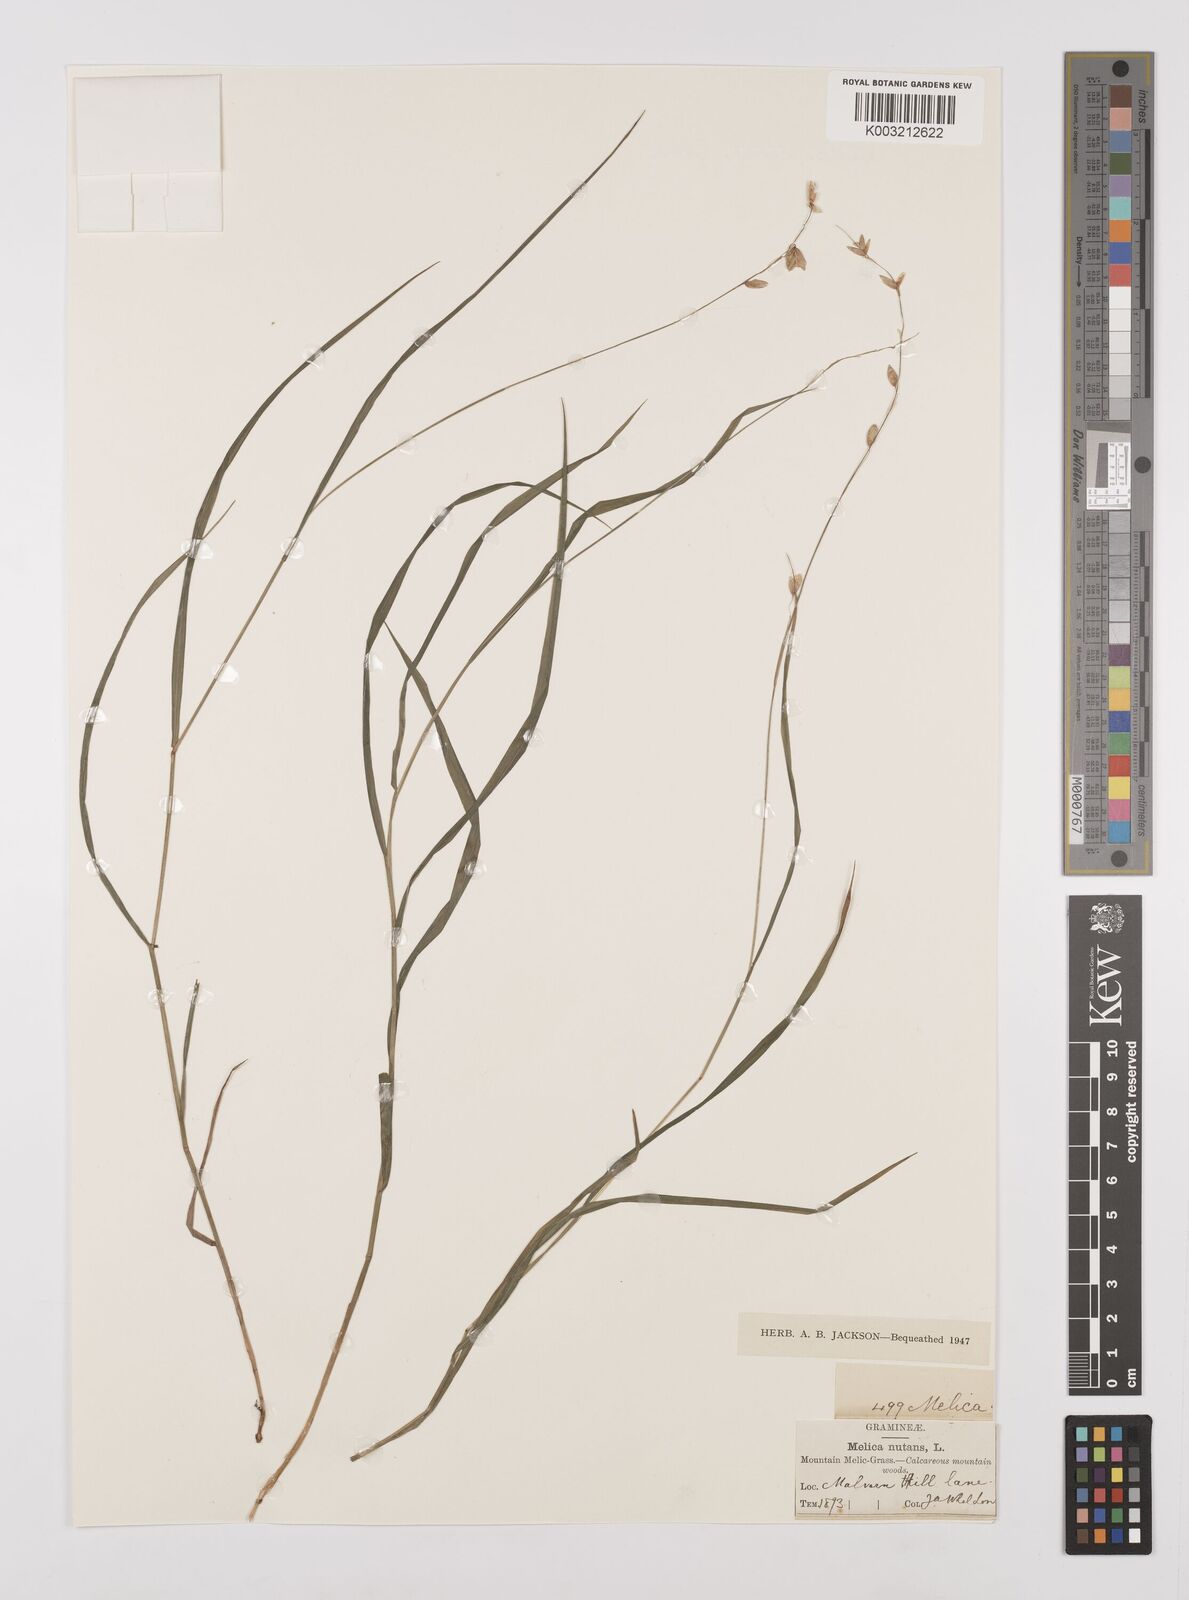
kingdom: Plantae
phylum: Tracheophyta
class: Liliopsida
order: Poales
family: Poaceae
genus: Melica
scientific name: Melica
